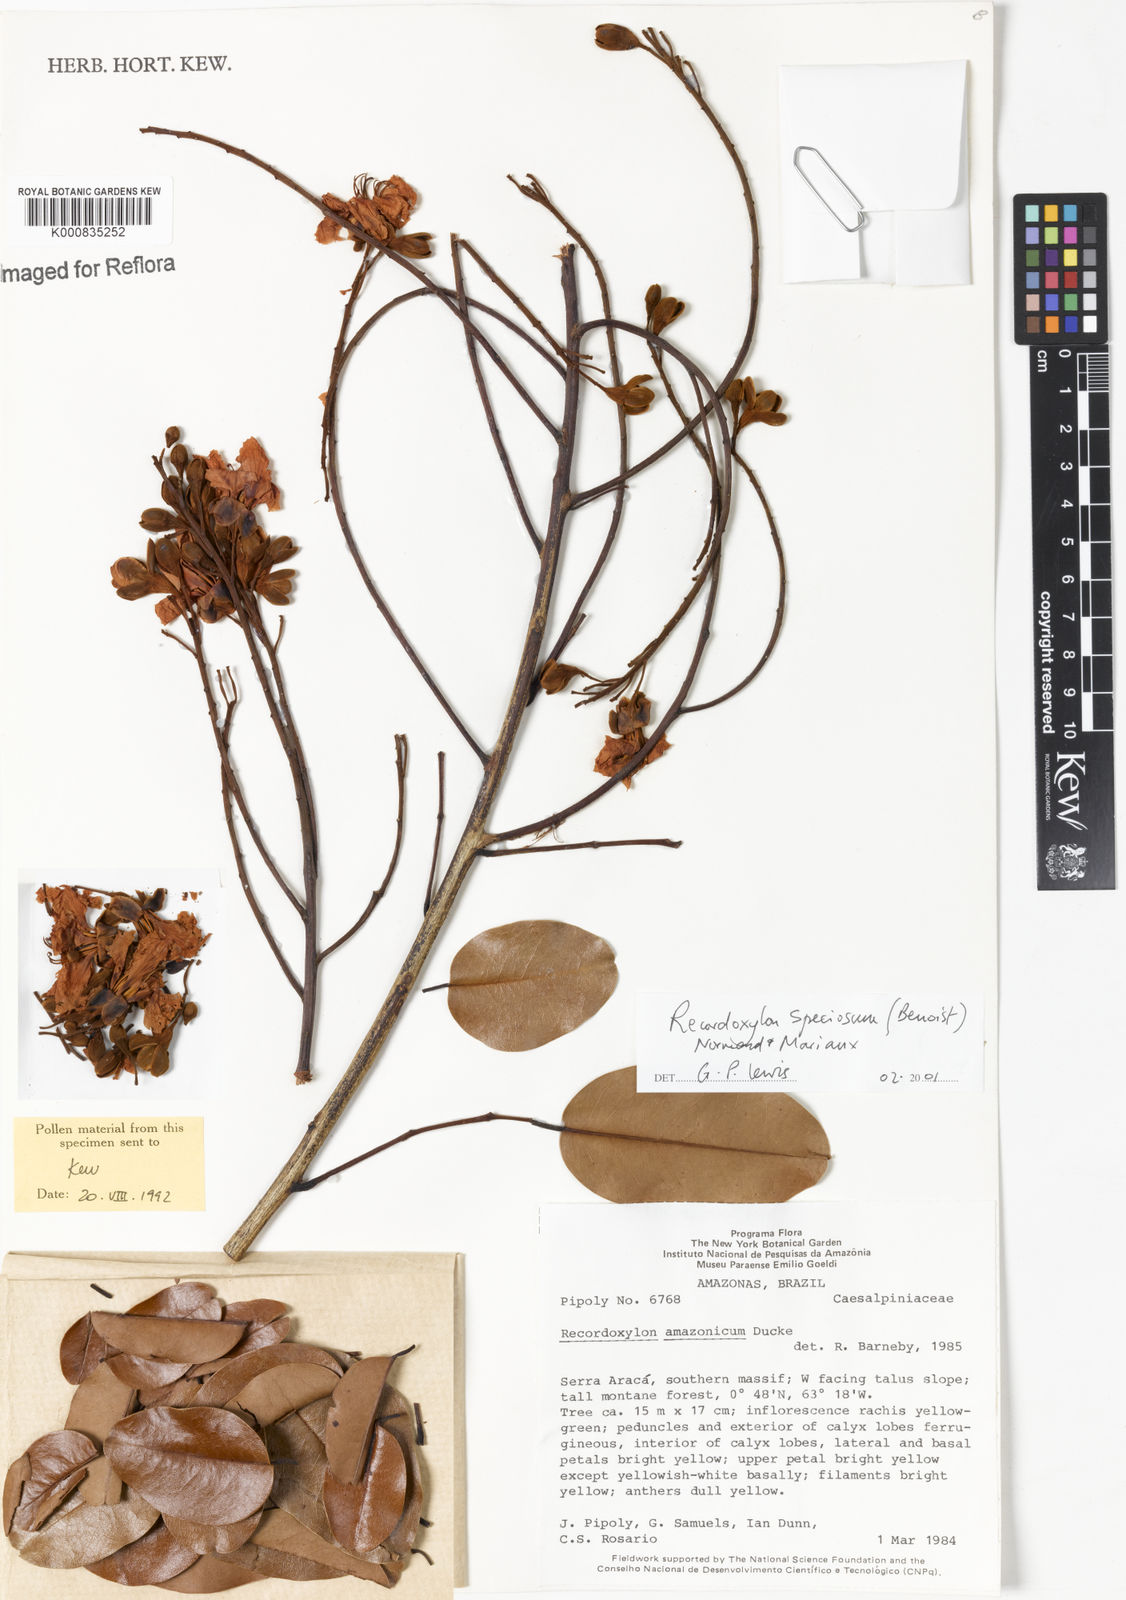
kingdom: Plantae
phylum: Tracheophyta
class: Magnoliopsida
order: Fabales
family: Fabaceae
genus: Recordoxylon
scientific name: Recordoxylon speciosum
